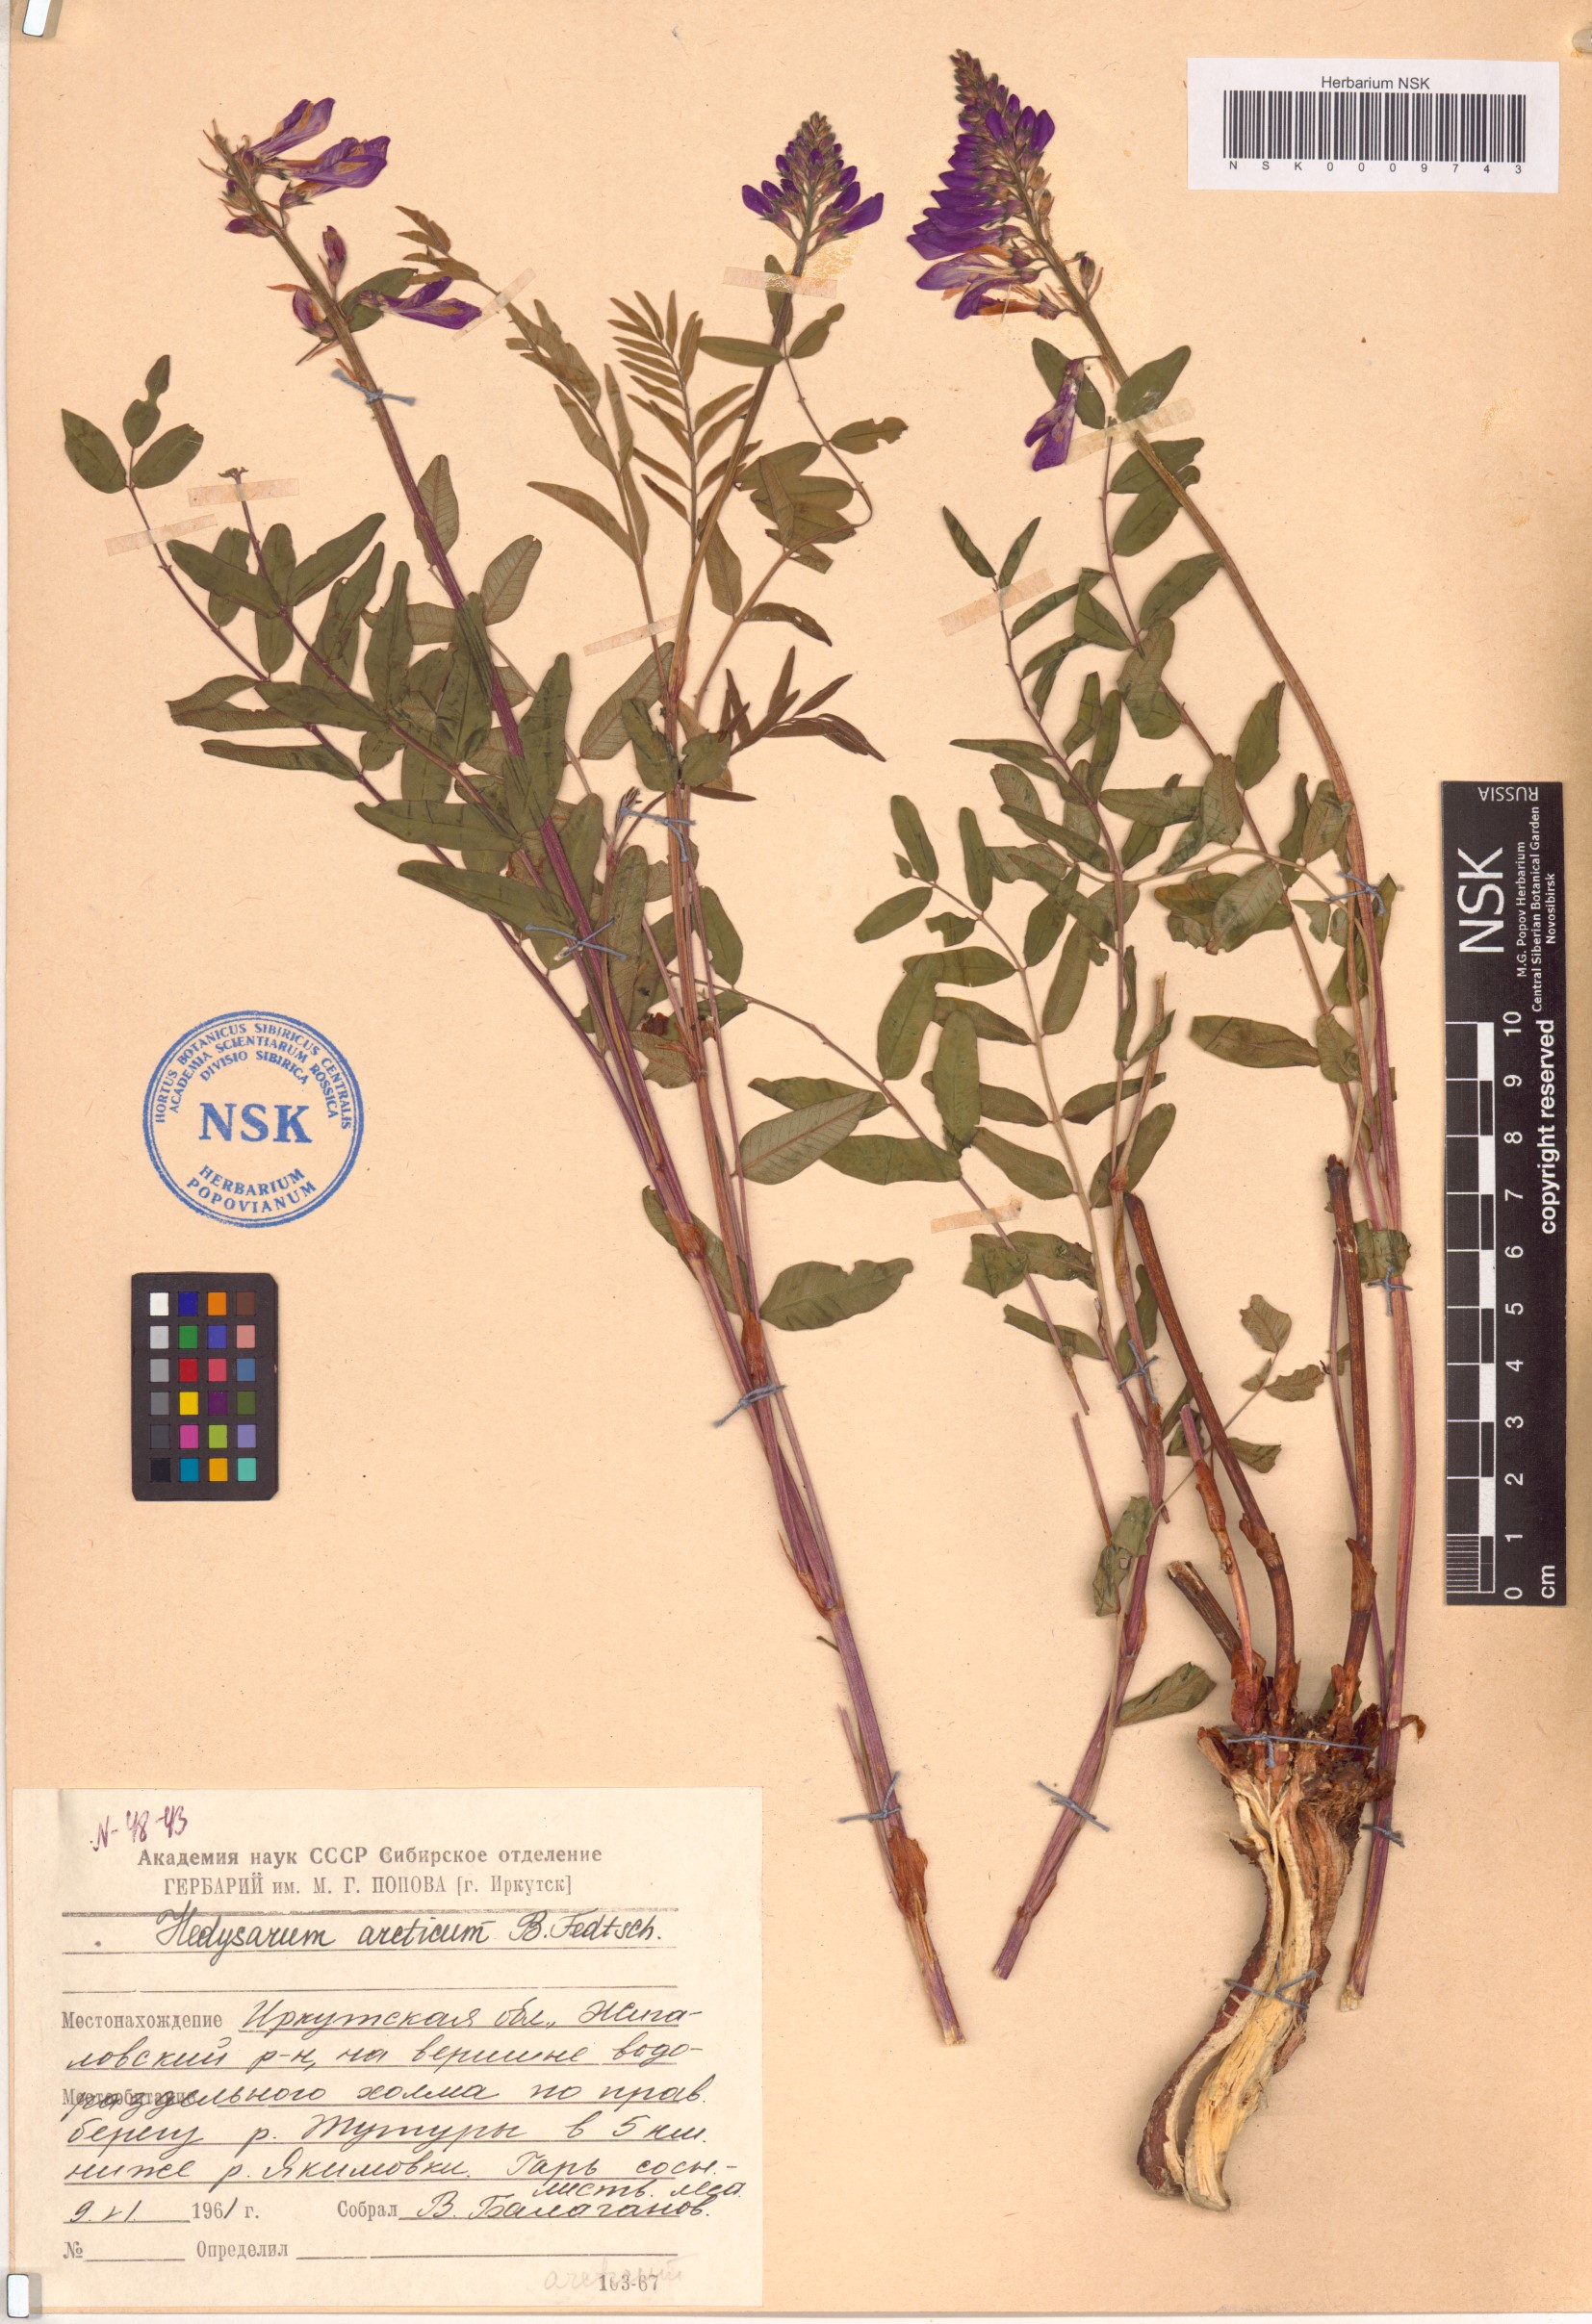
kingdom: Plantae
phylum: Tracheophyta
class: Magnoliopsida
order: Fabales
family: Fabaceae
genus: Hedysarum
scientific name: Hedysarum hedysaroides
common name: Alpine french-honeysuckle
